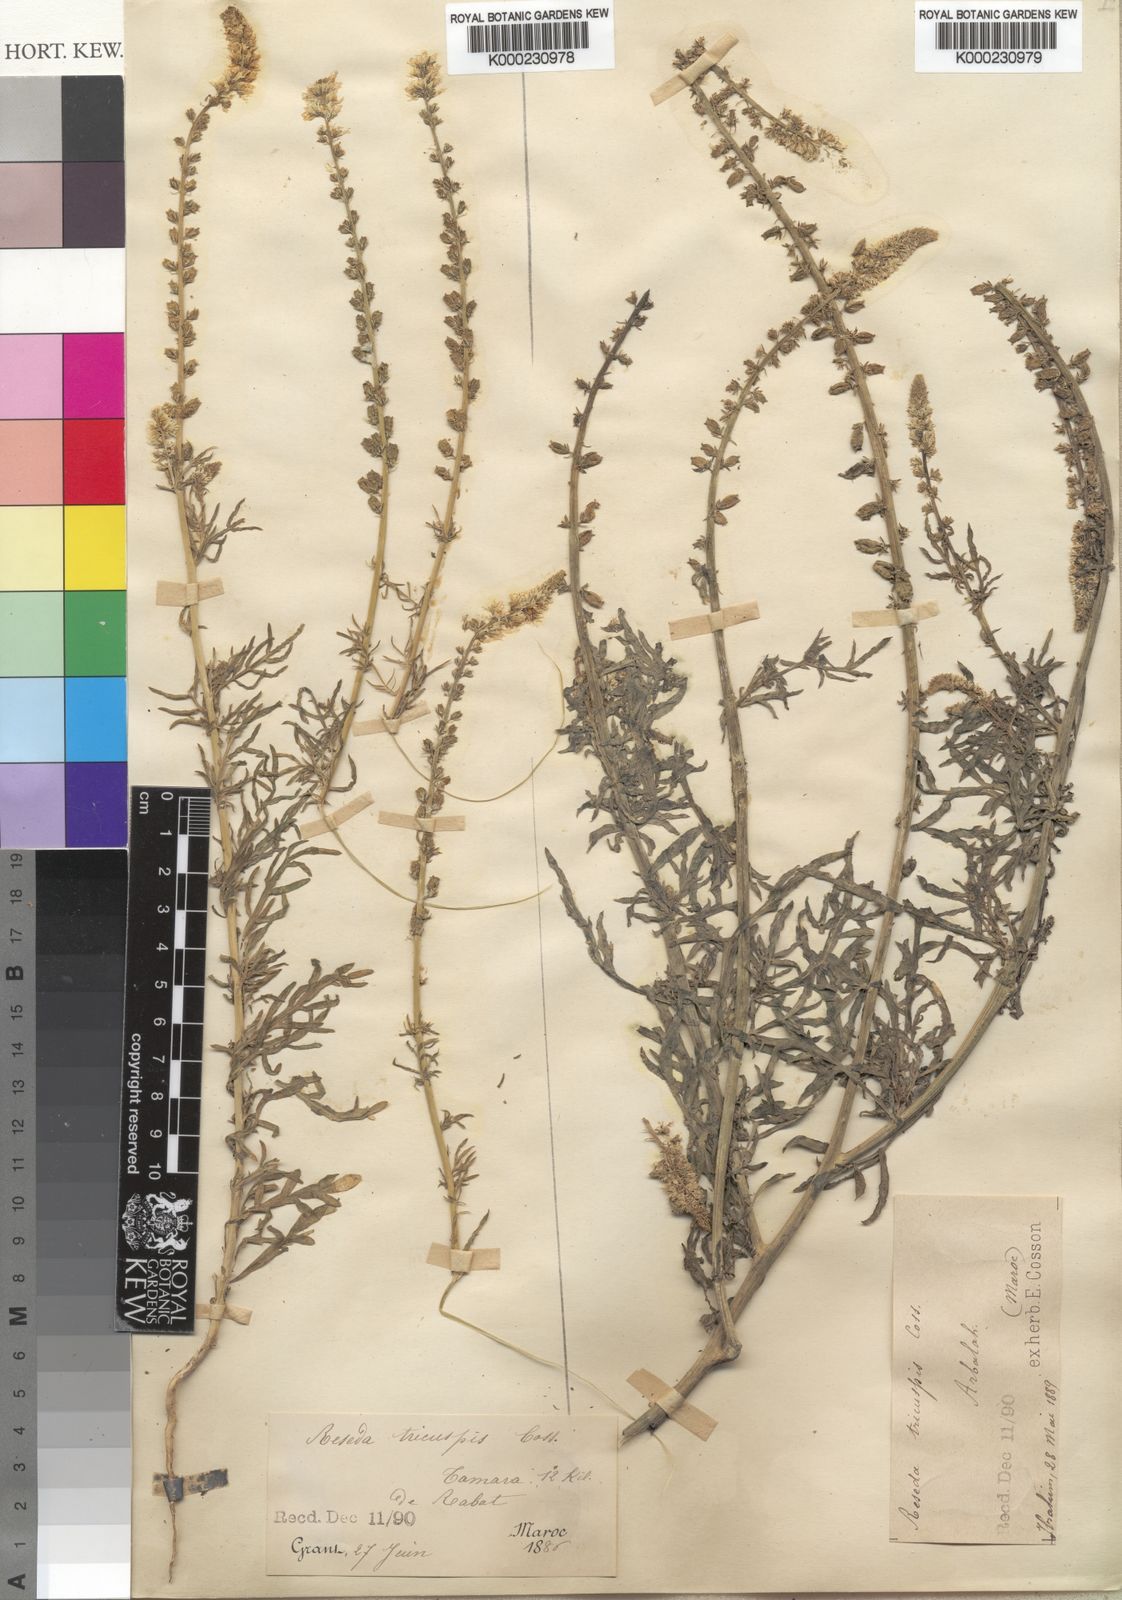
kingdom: Plantae
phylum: Tracheophyta
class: Magnoliopsida
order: Brassicales
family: Resedaceae
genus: Reseda
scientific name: Reseda alba
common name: White mignonette
